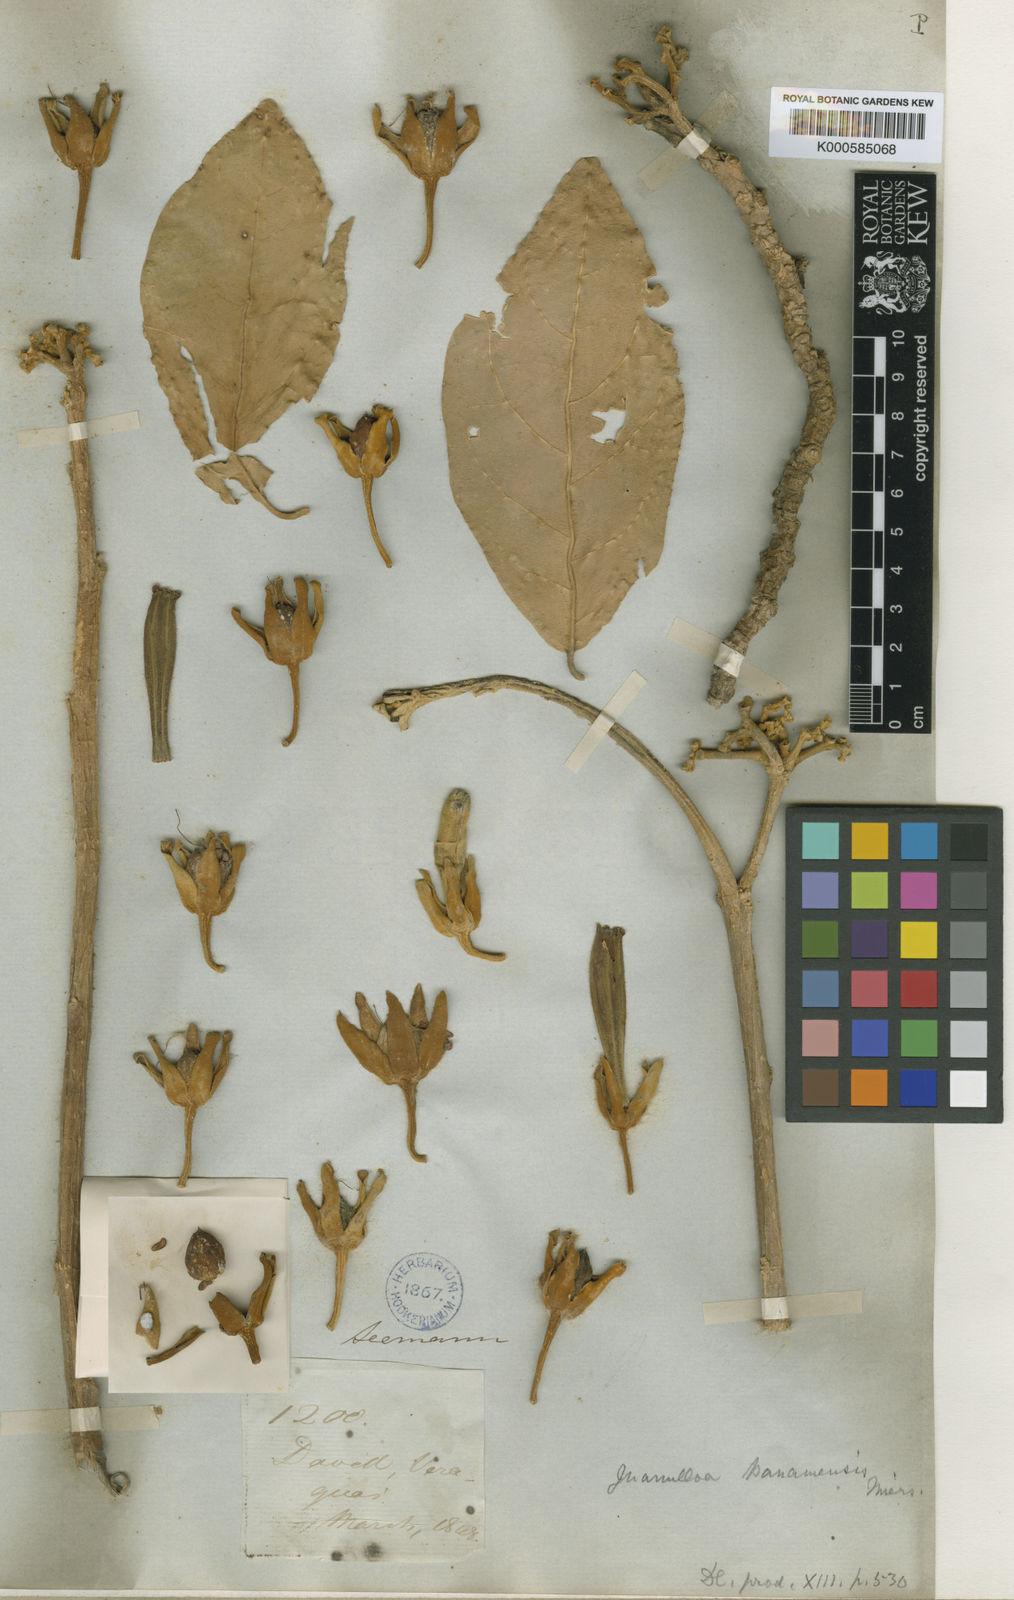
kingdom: Plantae
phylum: Tracheophyta
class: Magnoliopsida
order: Solanales
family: Solanaceae
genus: Juanulloa
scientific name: Juanulloa mexicana
